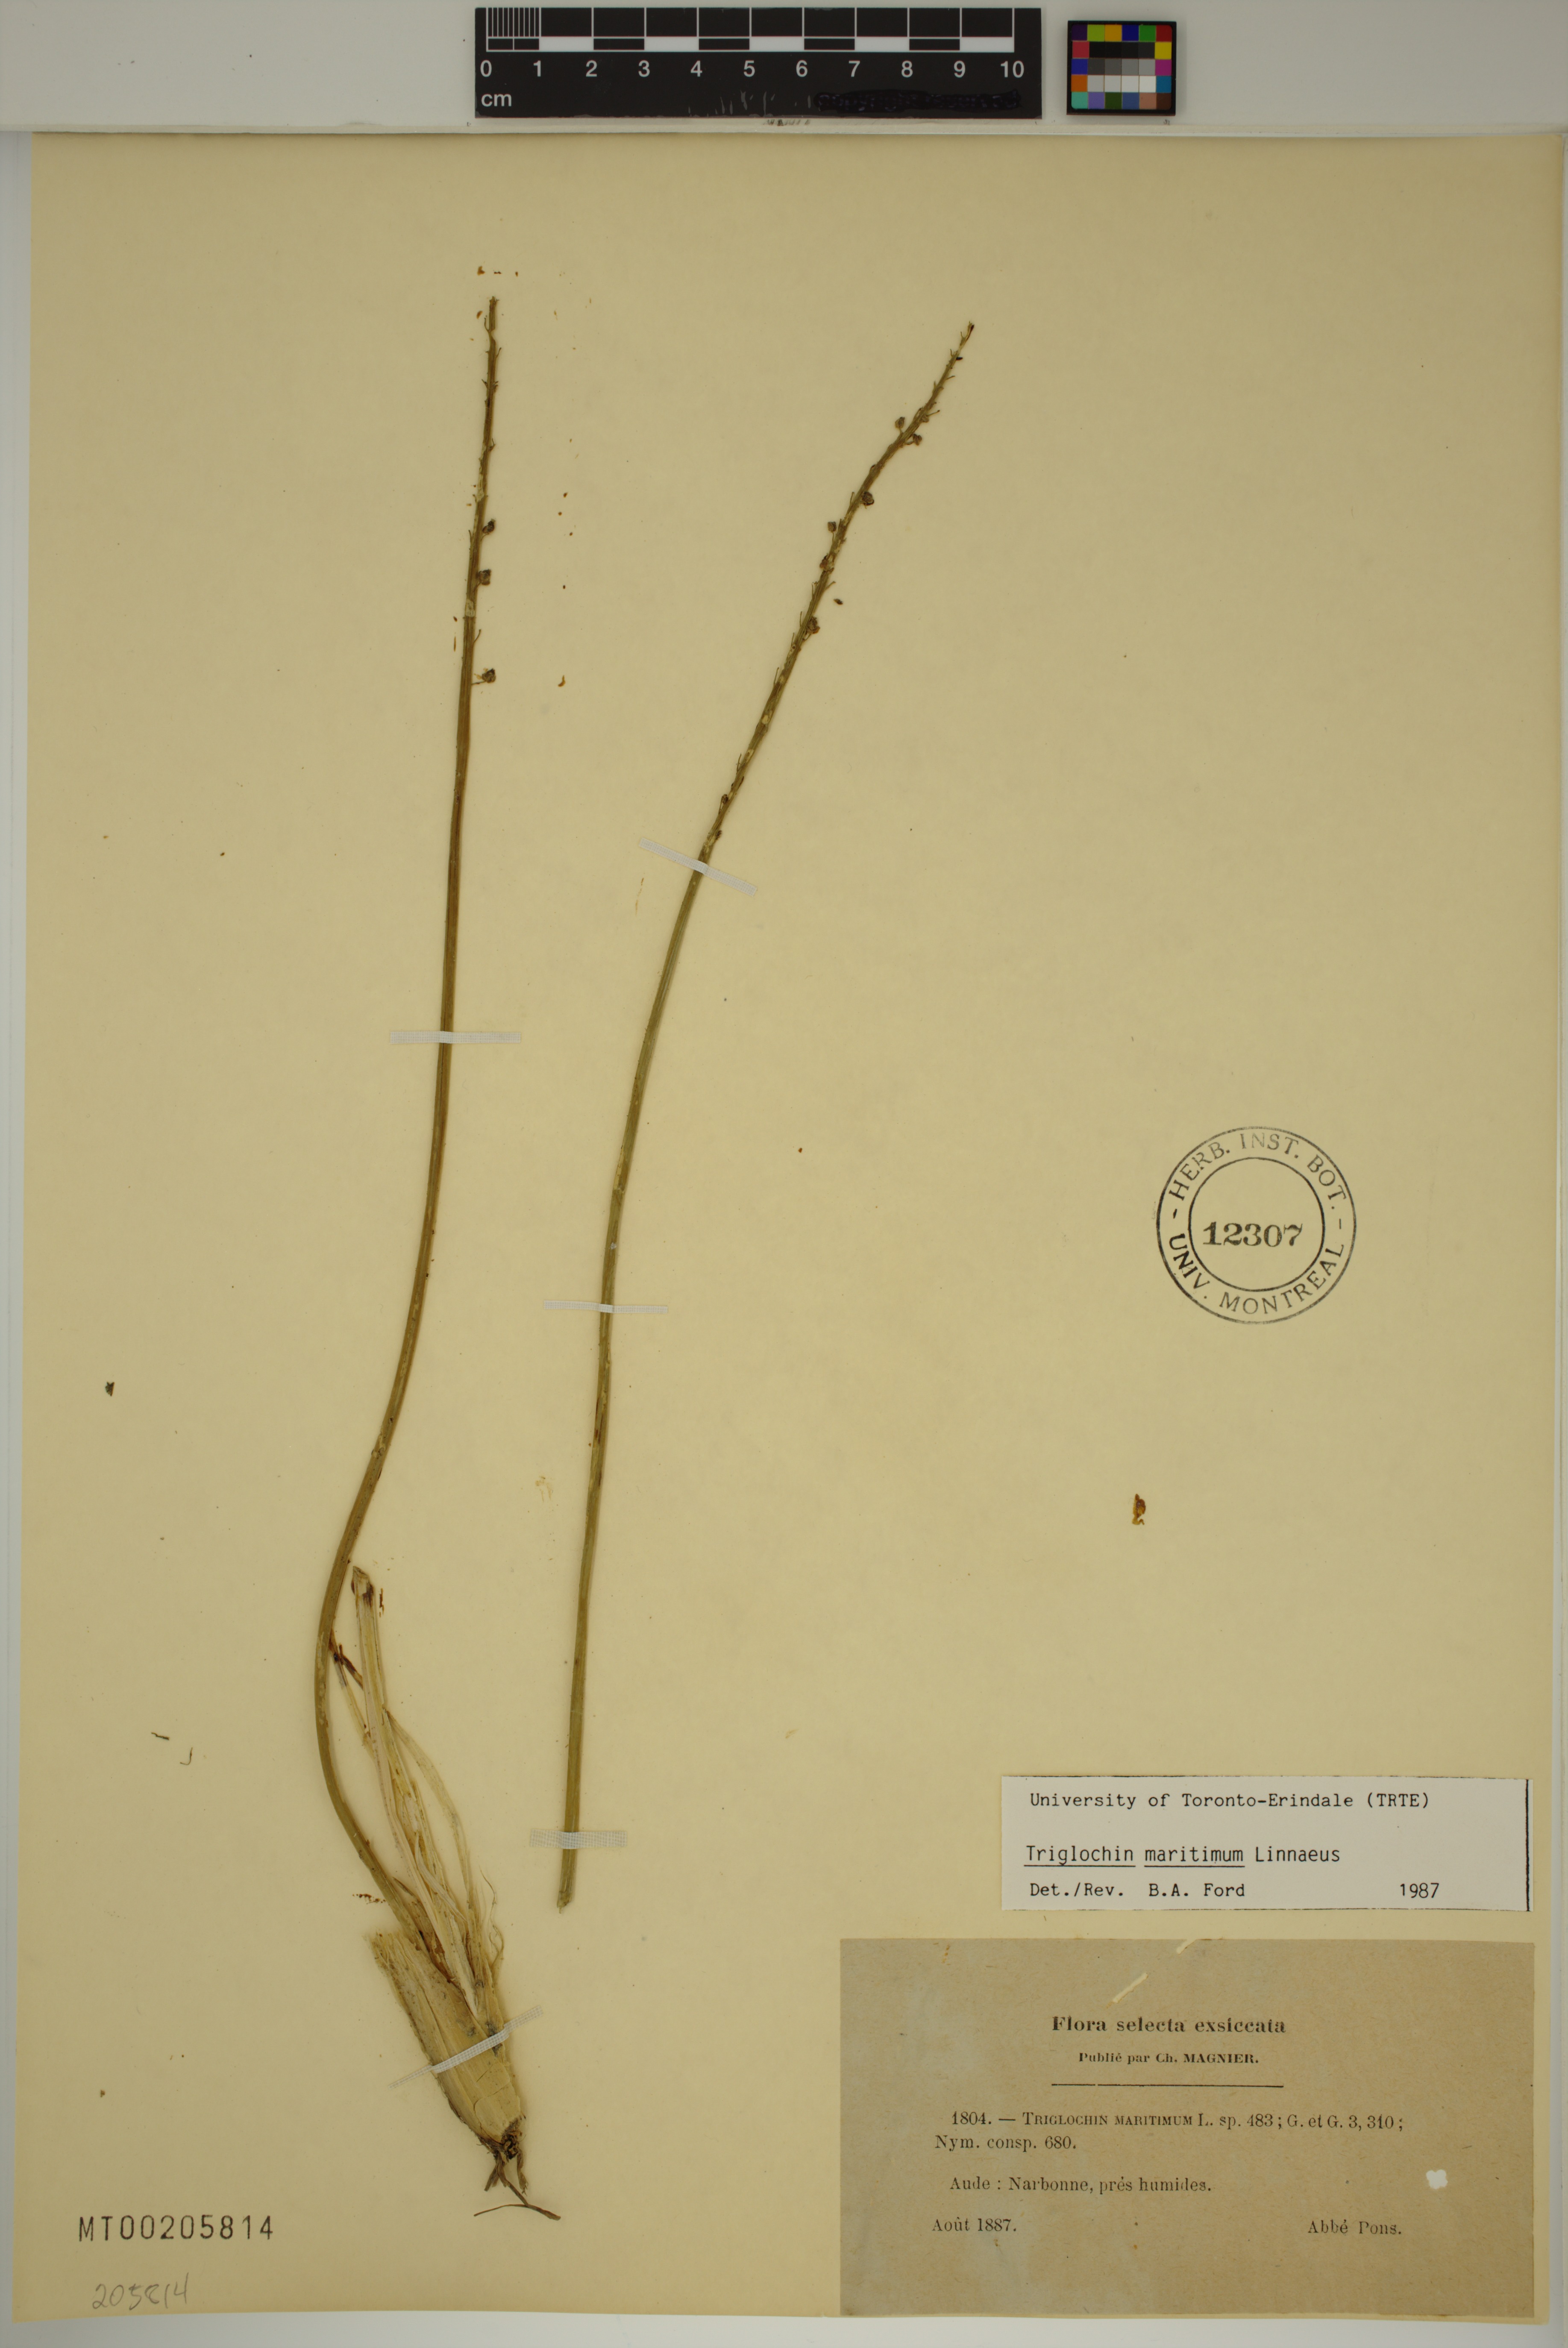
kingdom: Plantae
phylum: Tracheophyta
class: Liliopsida
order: Alismatales
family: Juncaginaceae
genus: Triglochin
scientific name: Triglochin maritima
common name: Sea arrowgrass
